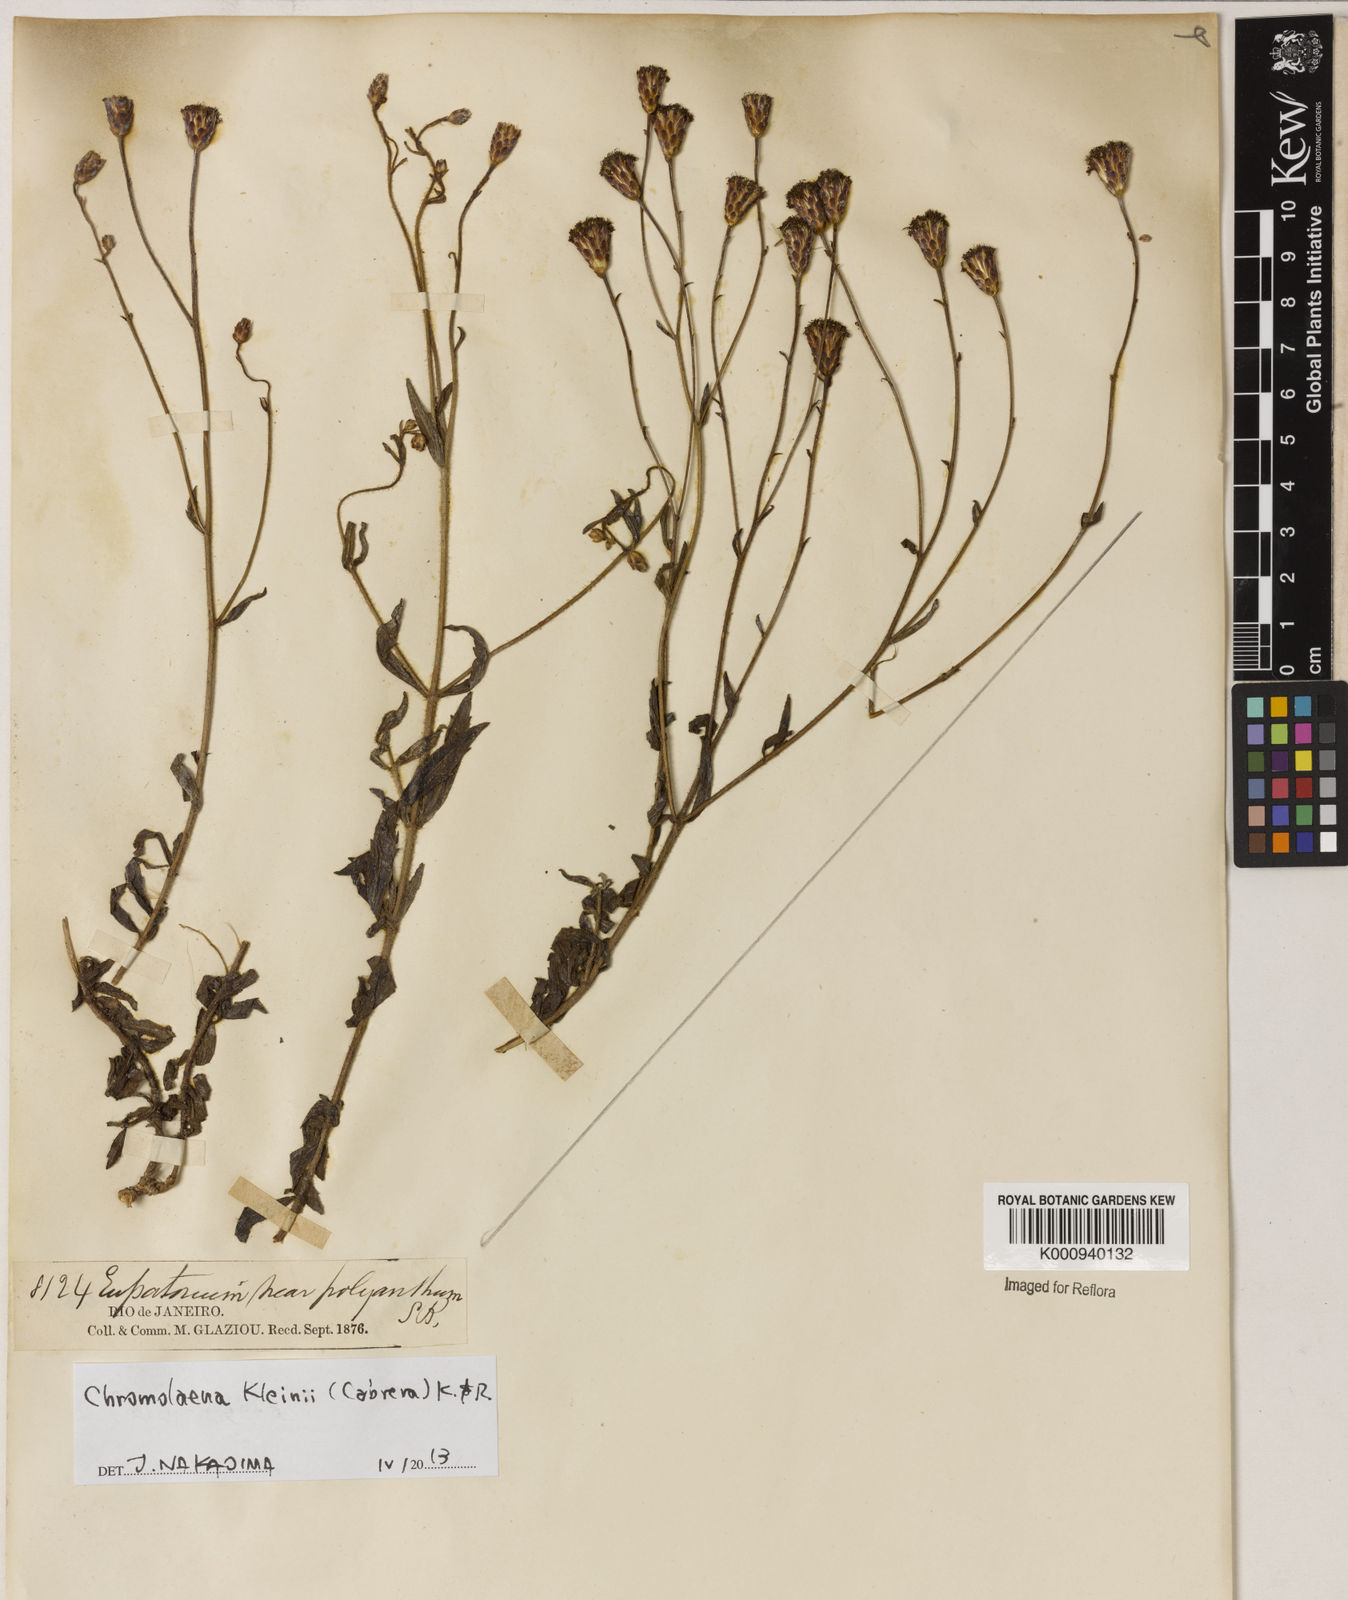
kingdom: Plantae
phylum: Tracheophyta
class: Magnoliopsida
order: Asterales
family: Asteraceae
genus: Chromolaena
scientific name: Chromolaena kleinii
